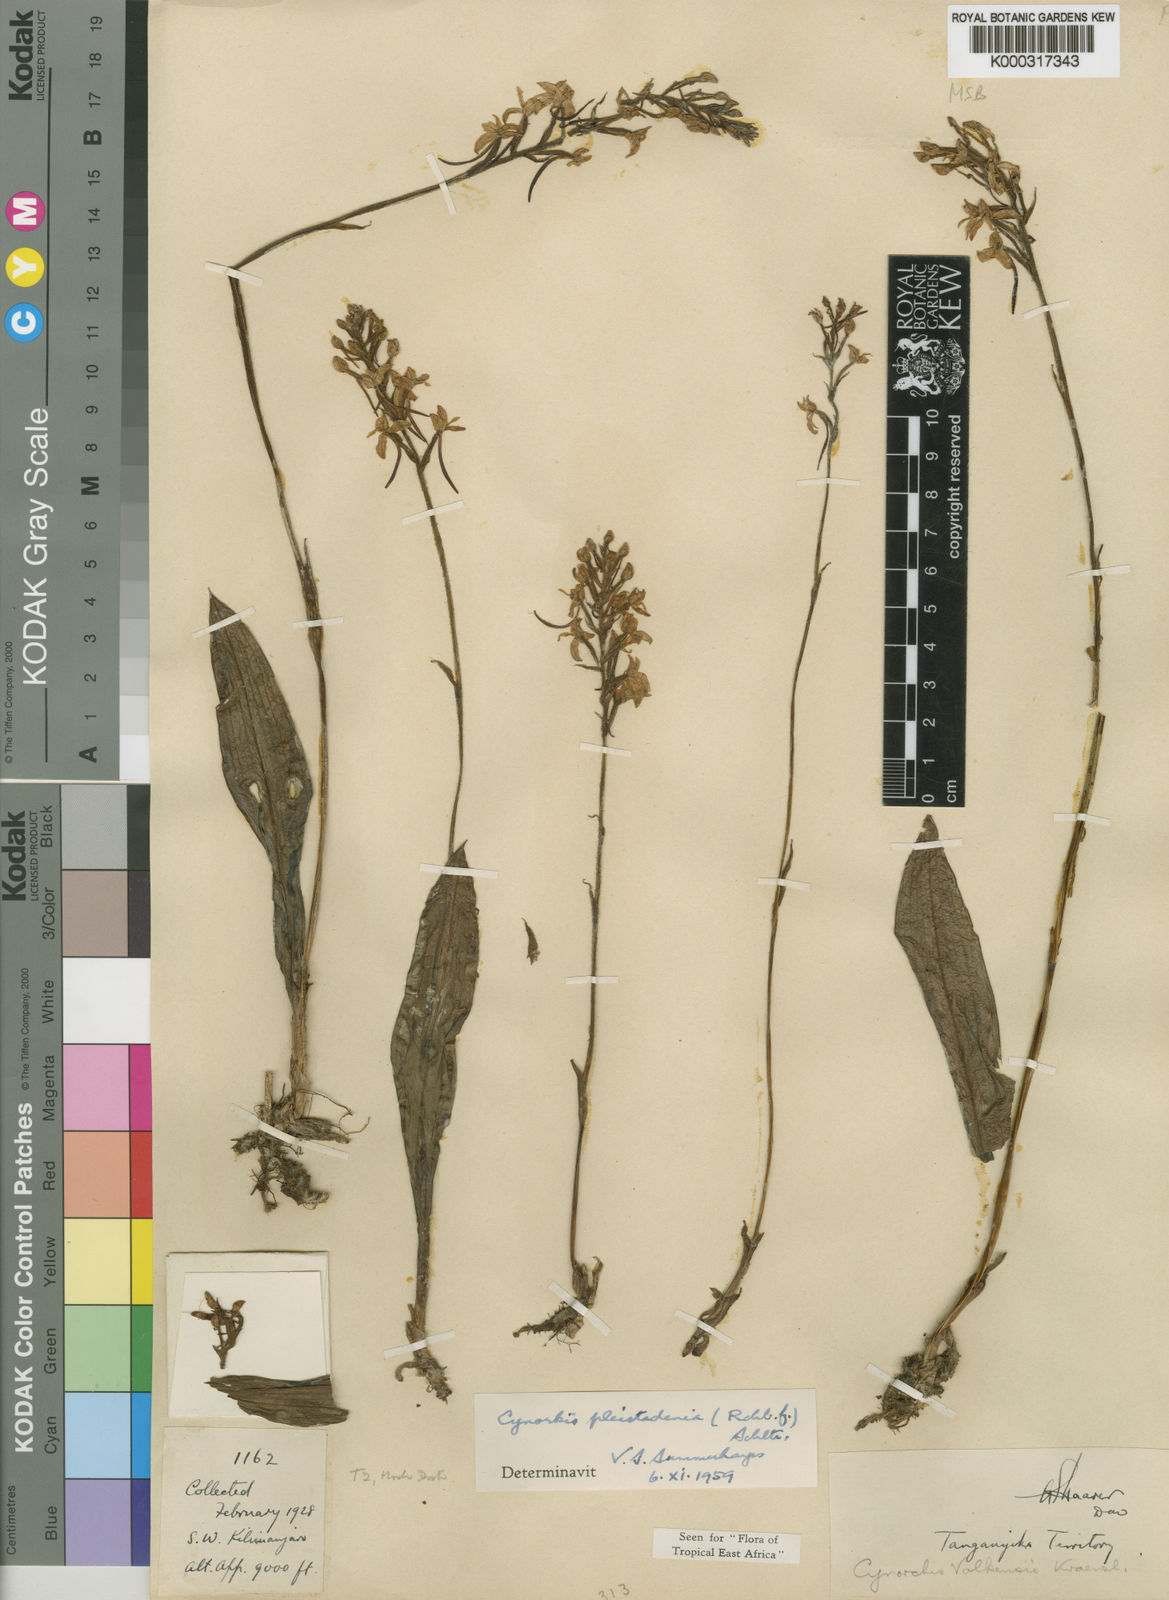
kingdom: Plantae
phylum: Tracheophyta
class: Liliopsida
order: Asparagales
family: Orchidaceae
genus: Cynorkis
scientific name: Cynorkis pleistadenia
